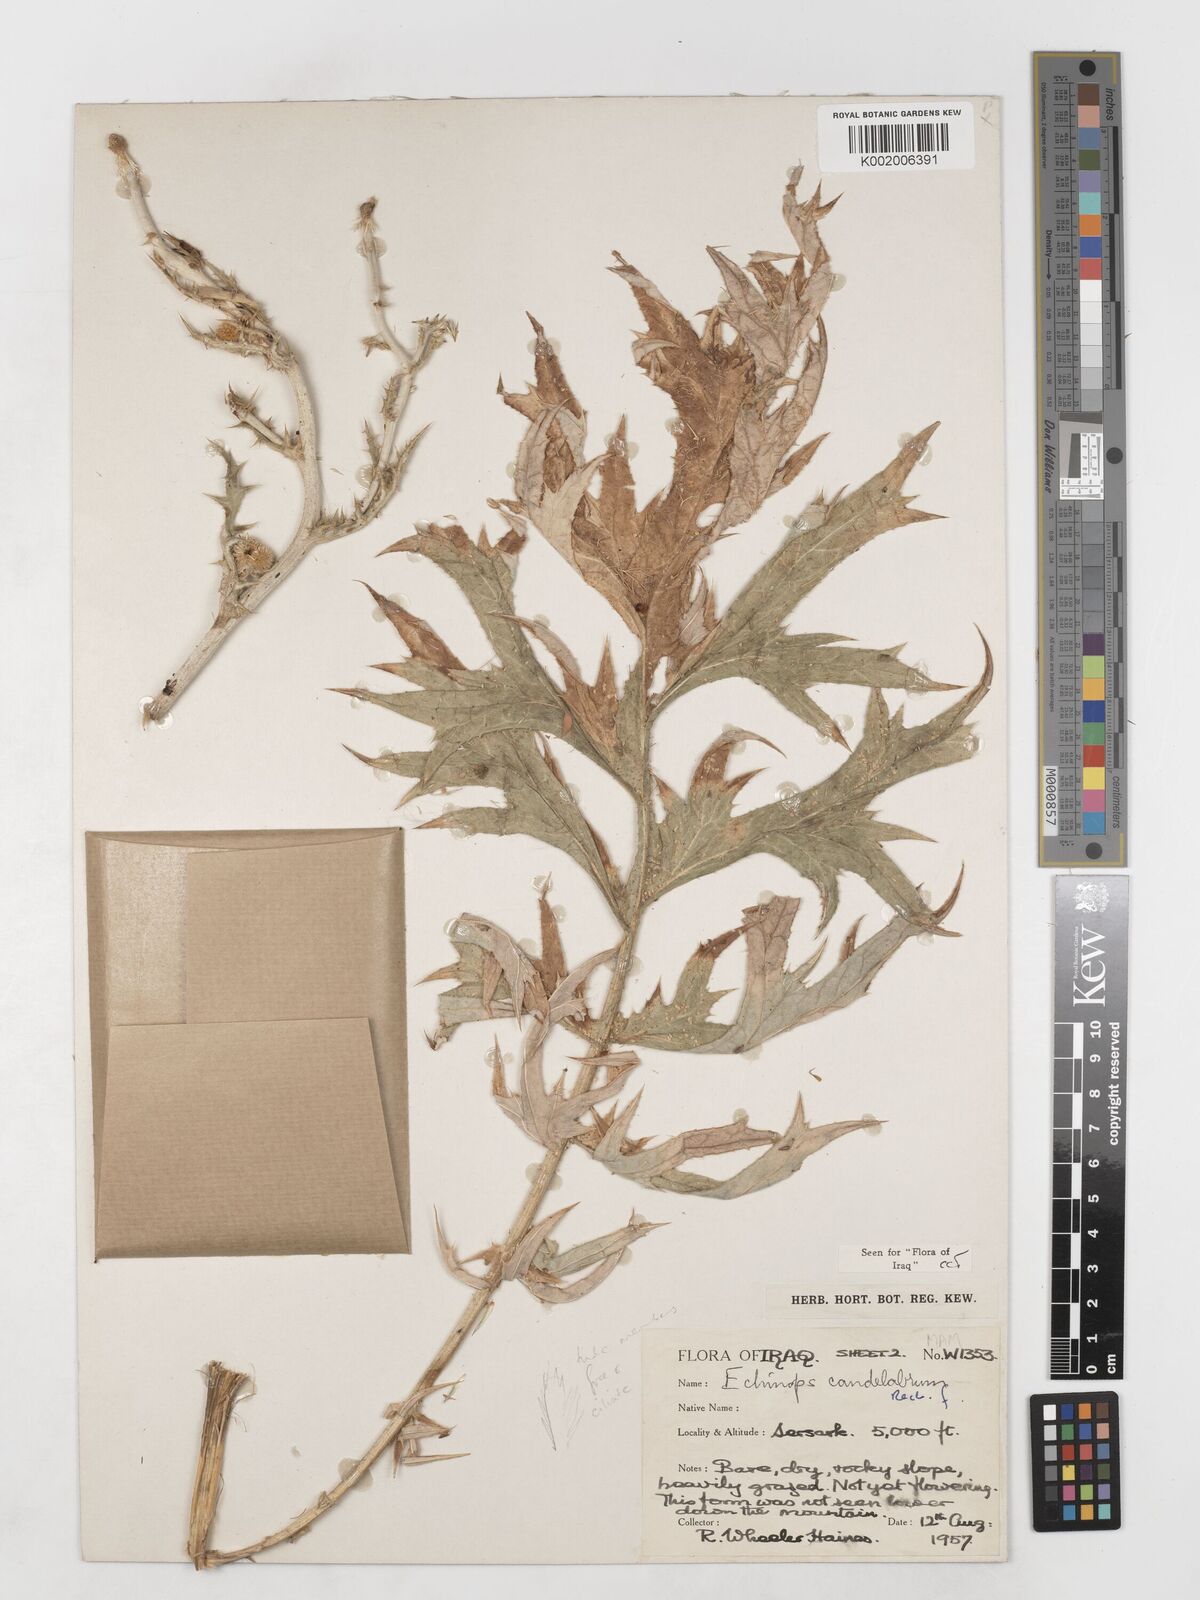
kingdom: Plantae
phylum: Tracheophyta
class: Magnoliopsida
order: Asterales
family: Asteraceae
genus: Echinops
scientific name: Echinops candelabrum
